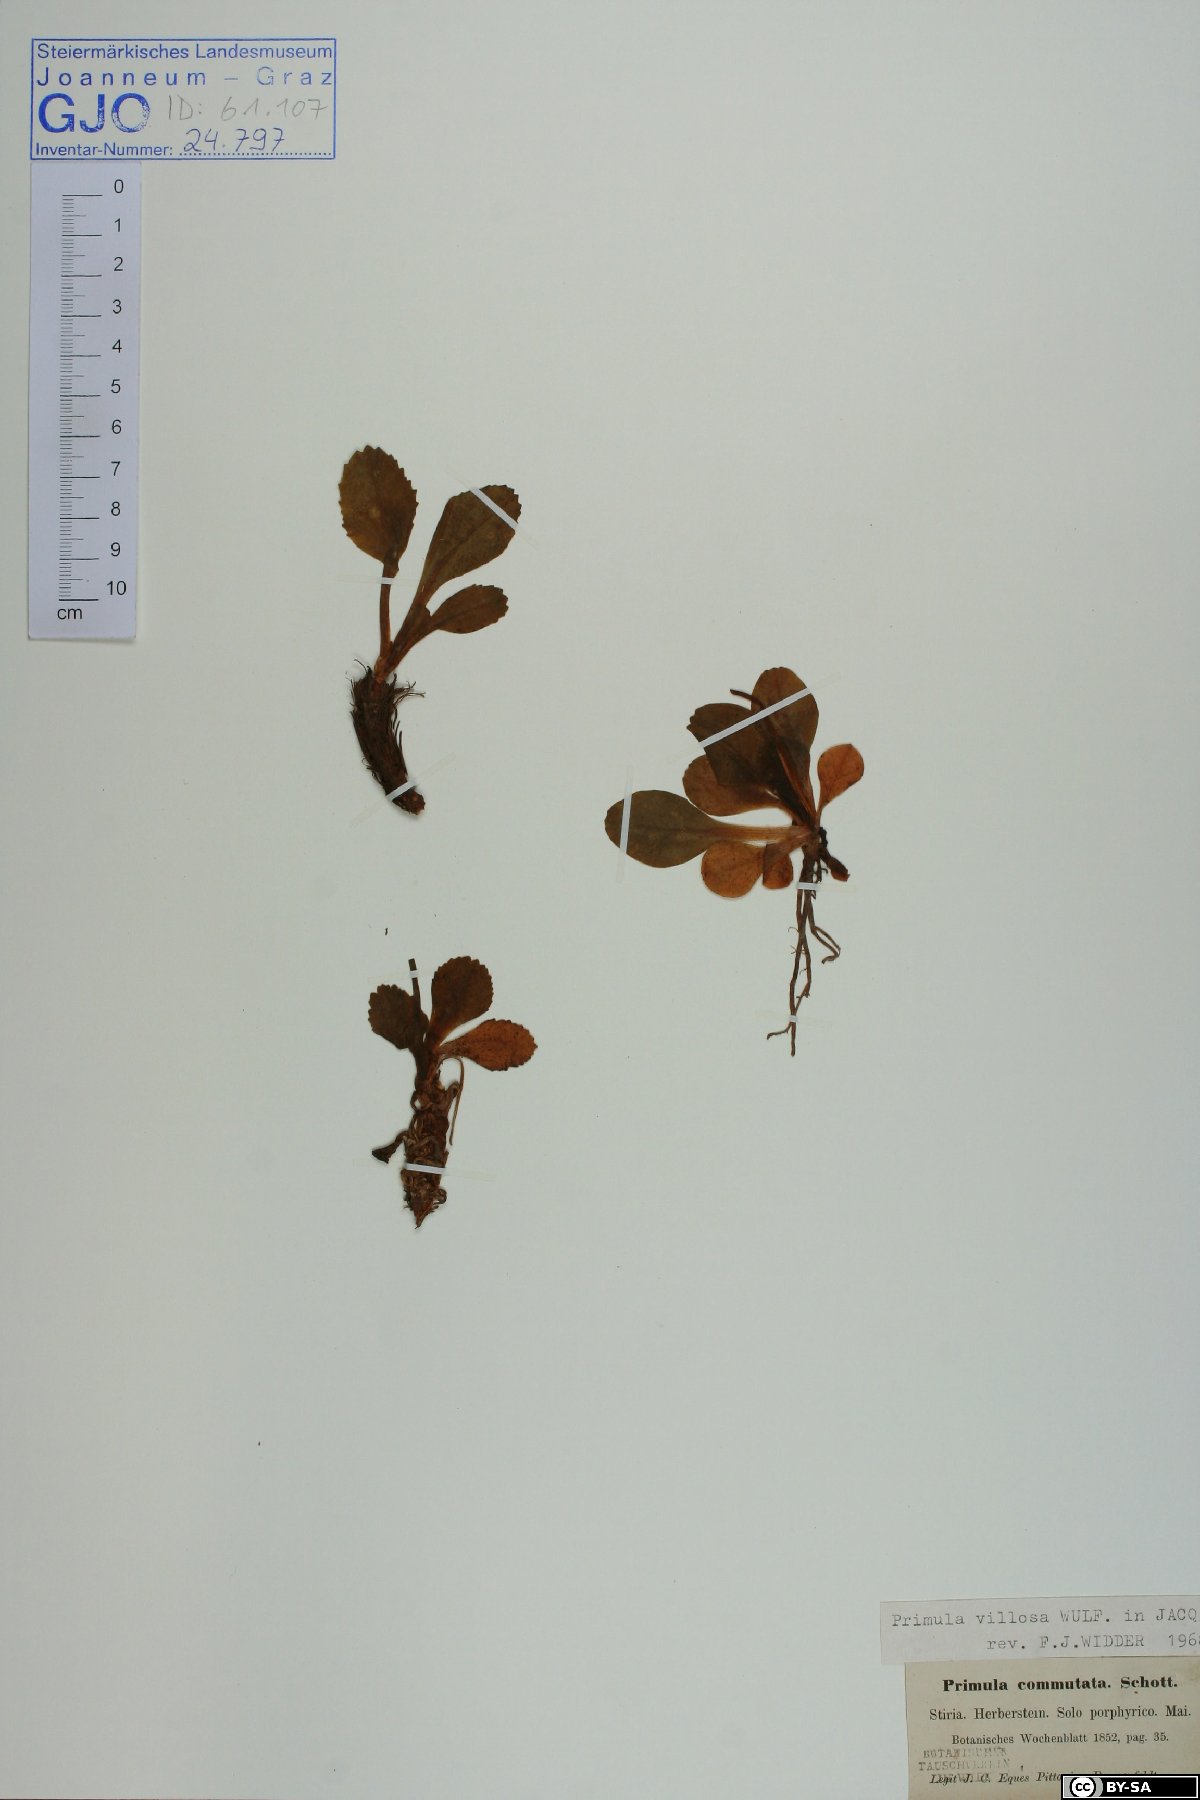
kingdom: Plantae
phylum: Tracheophyta
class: Magnoliopsida
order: Ericales
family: Primulaceae
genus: Primula
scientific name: Primula villosa
